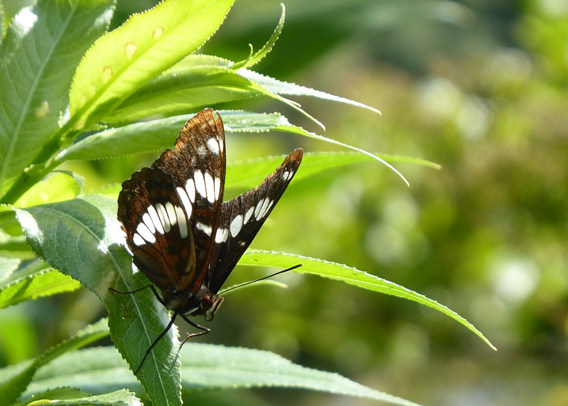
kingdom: Animalia
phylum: Arthropoda
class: Insecta
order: Lepidoptera
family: Nymphalidae
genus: Limenitis
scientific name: Limenitis lorquini
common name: Lorquin's Admiral
